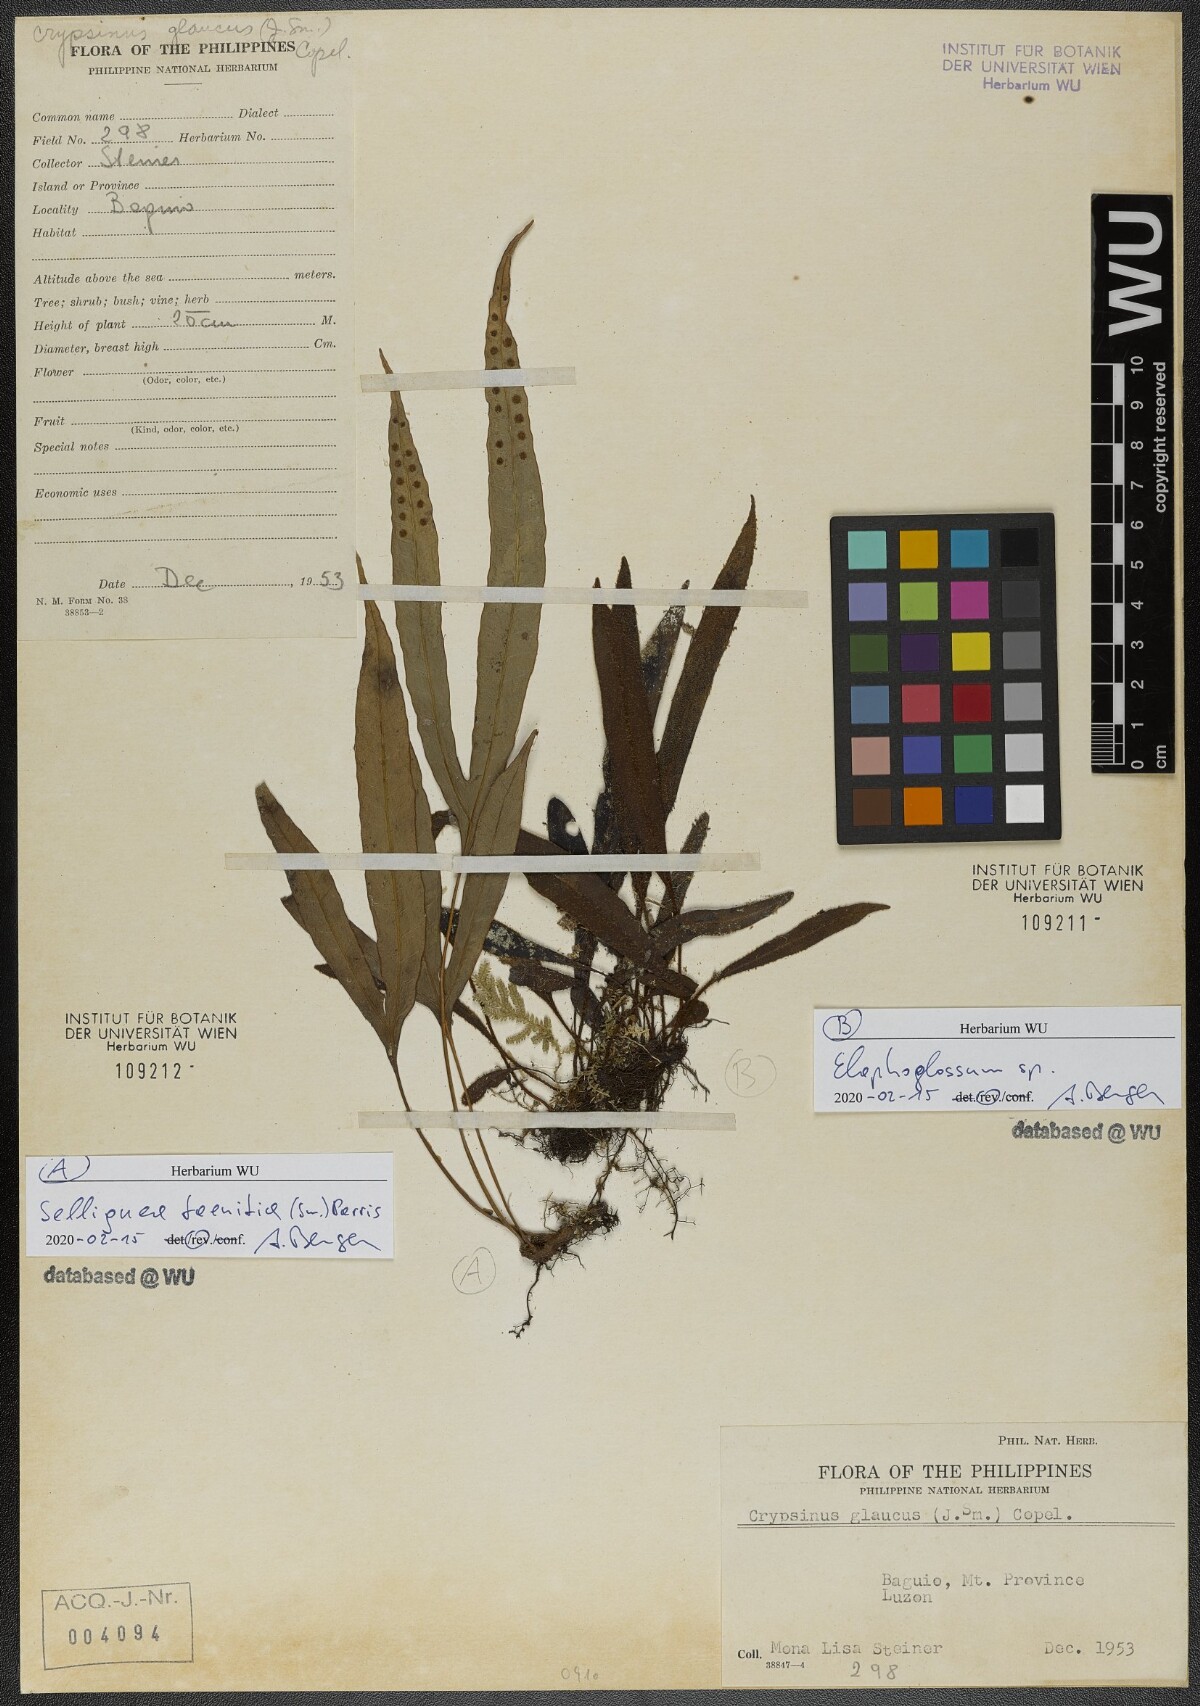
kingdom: Plantae
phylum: Tracheophyta
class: Polypodiopsida
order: Polypodiales
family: Dryopteridaceae
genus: Elaphoglossum
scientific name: Elaphoglossum
